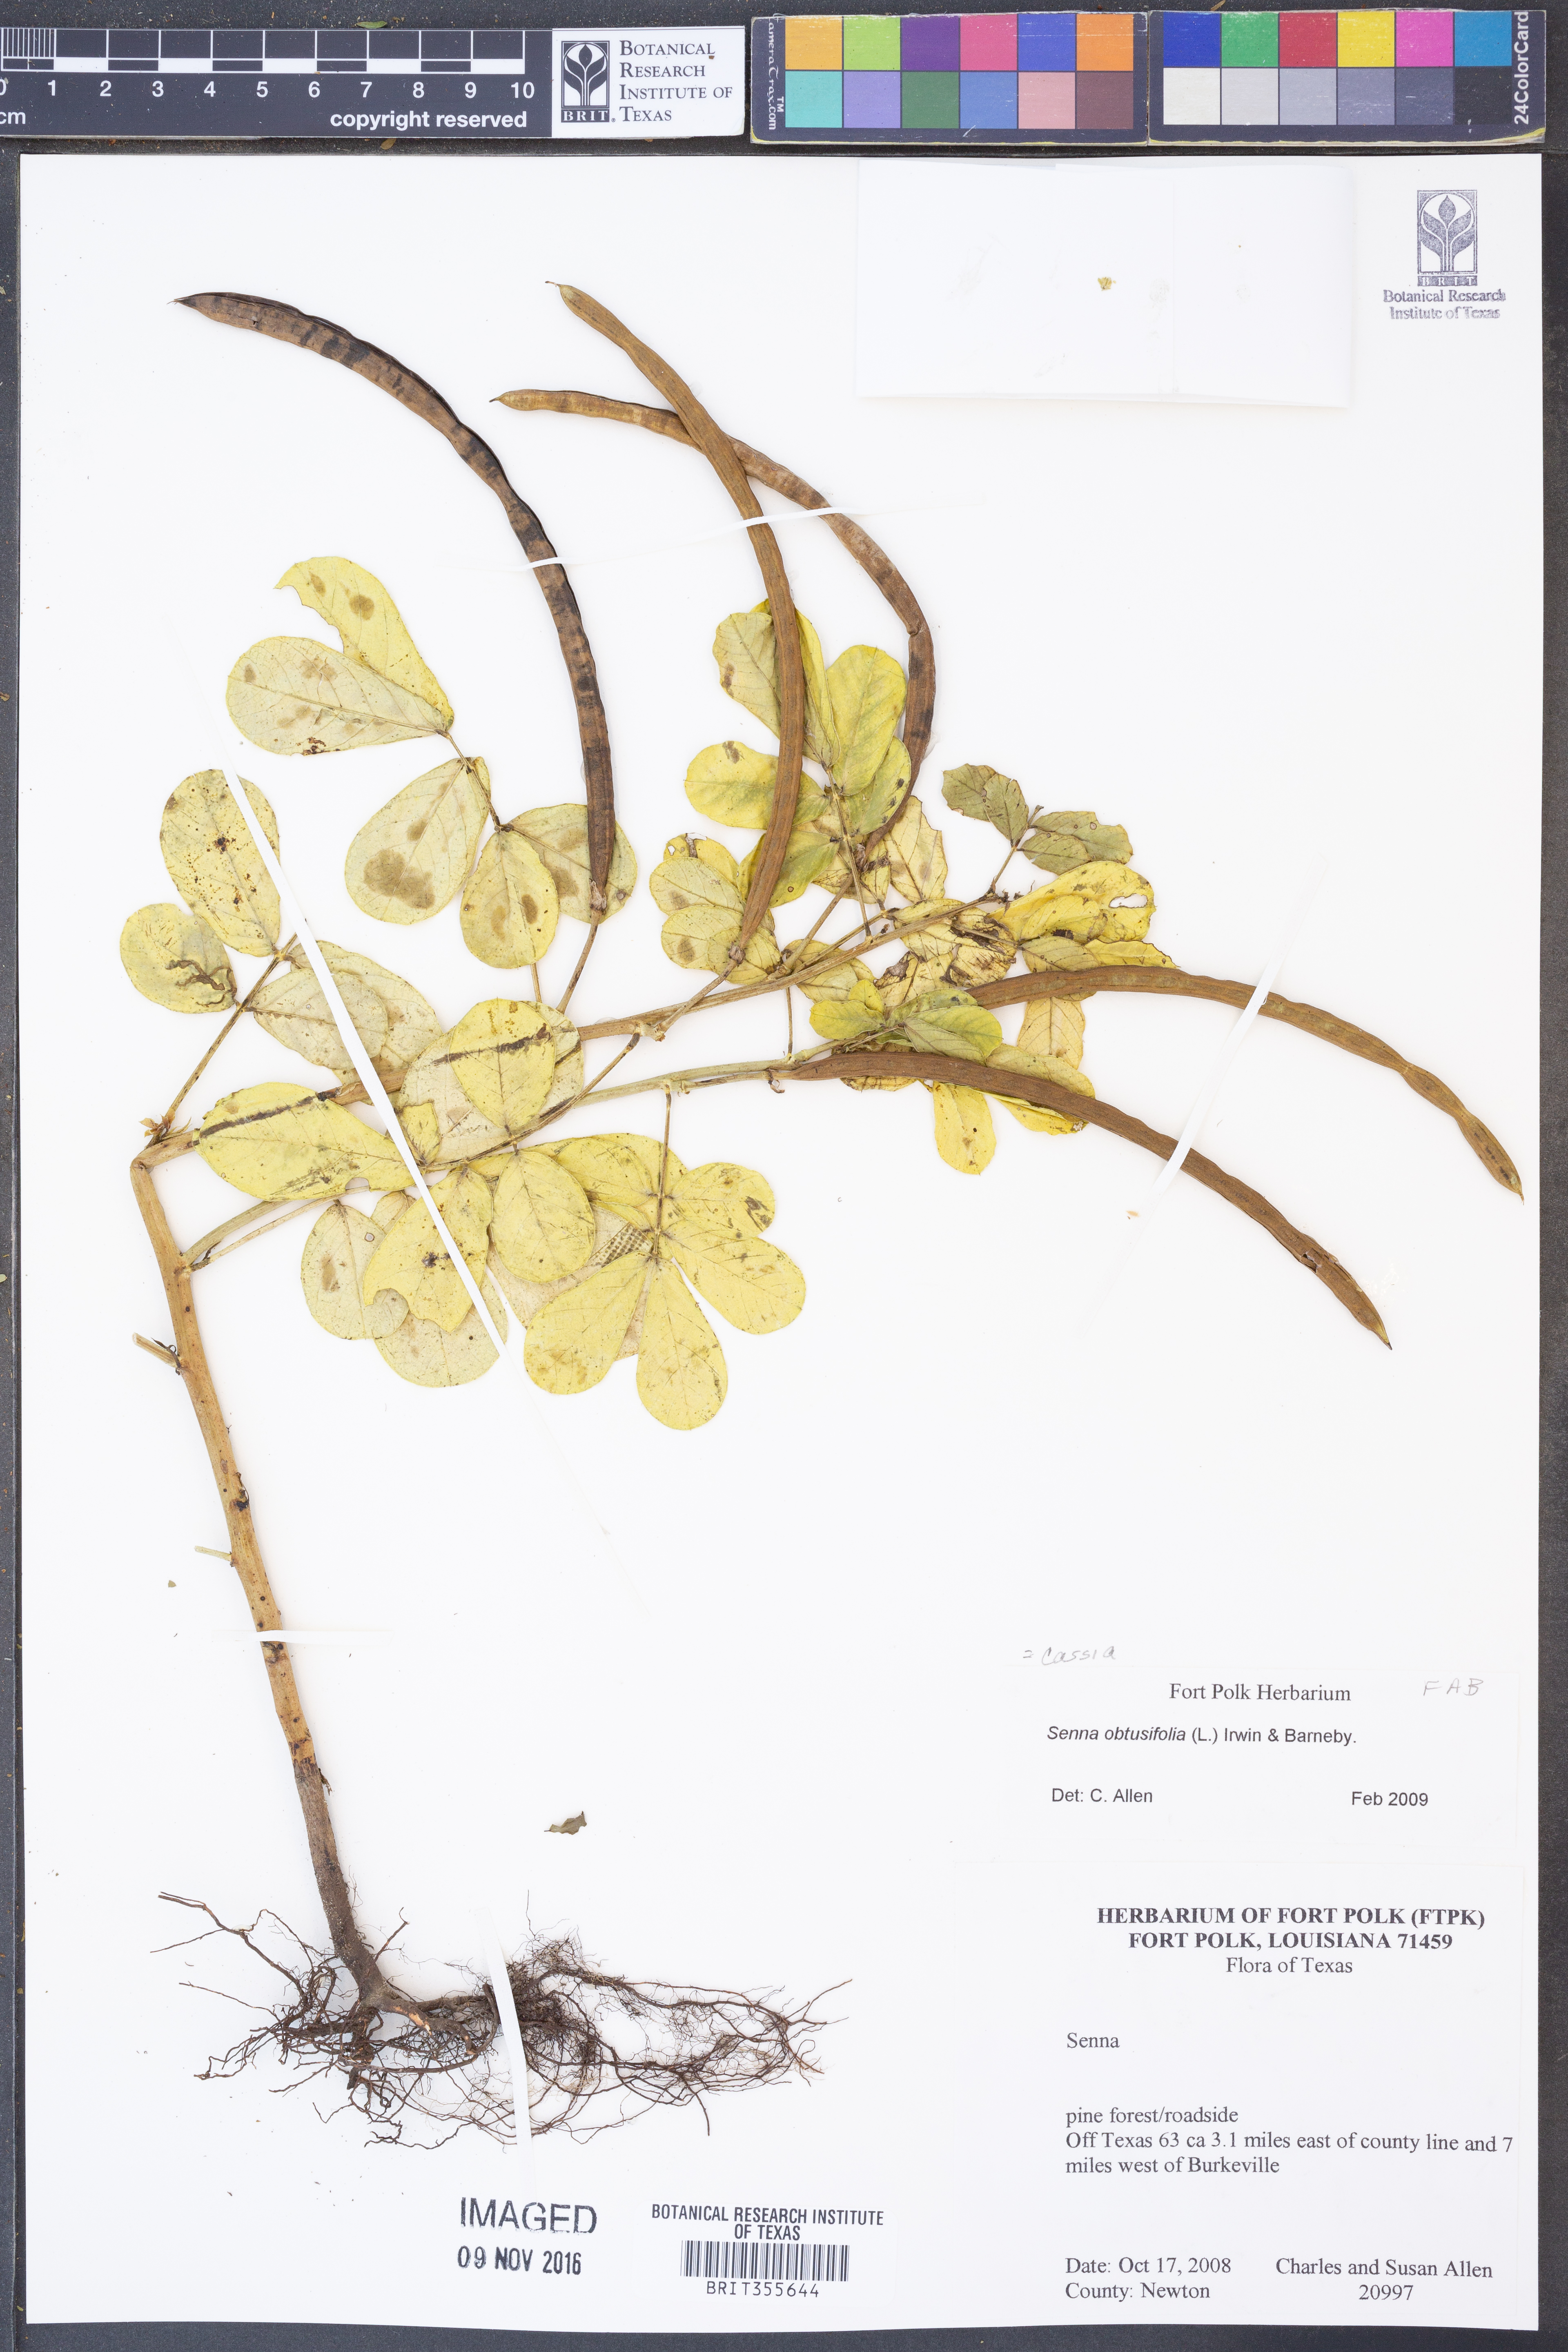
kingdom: Plantae
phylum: Tracheophyta
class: Magnoliopsida
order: Fabales
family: Fabaceae
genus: Senna
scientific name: Senna obtusifolia
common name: Java-bean
